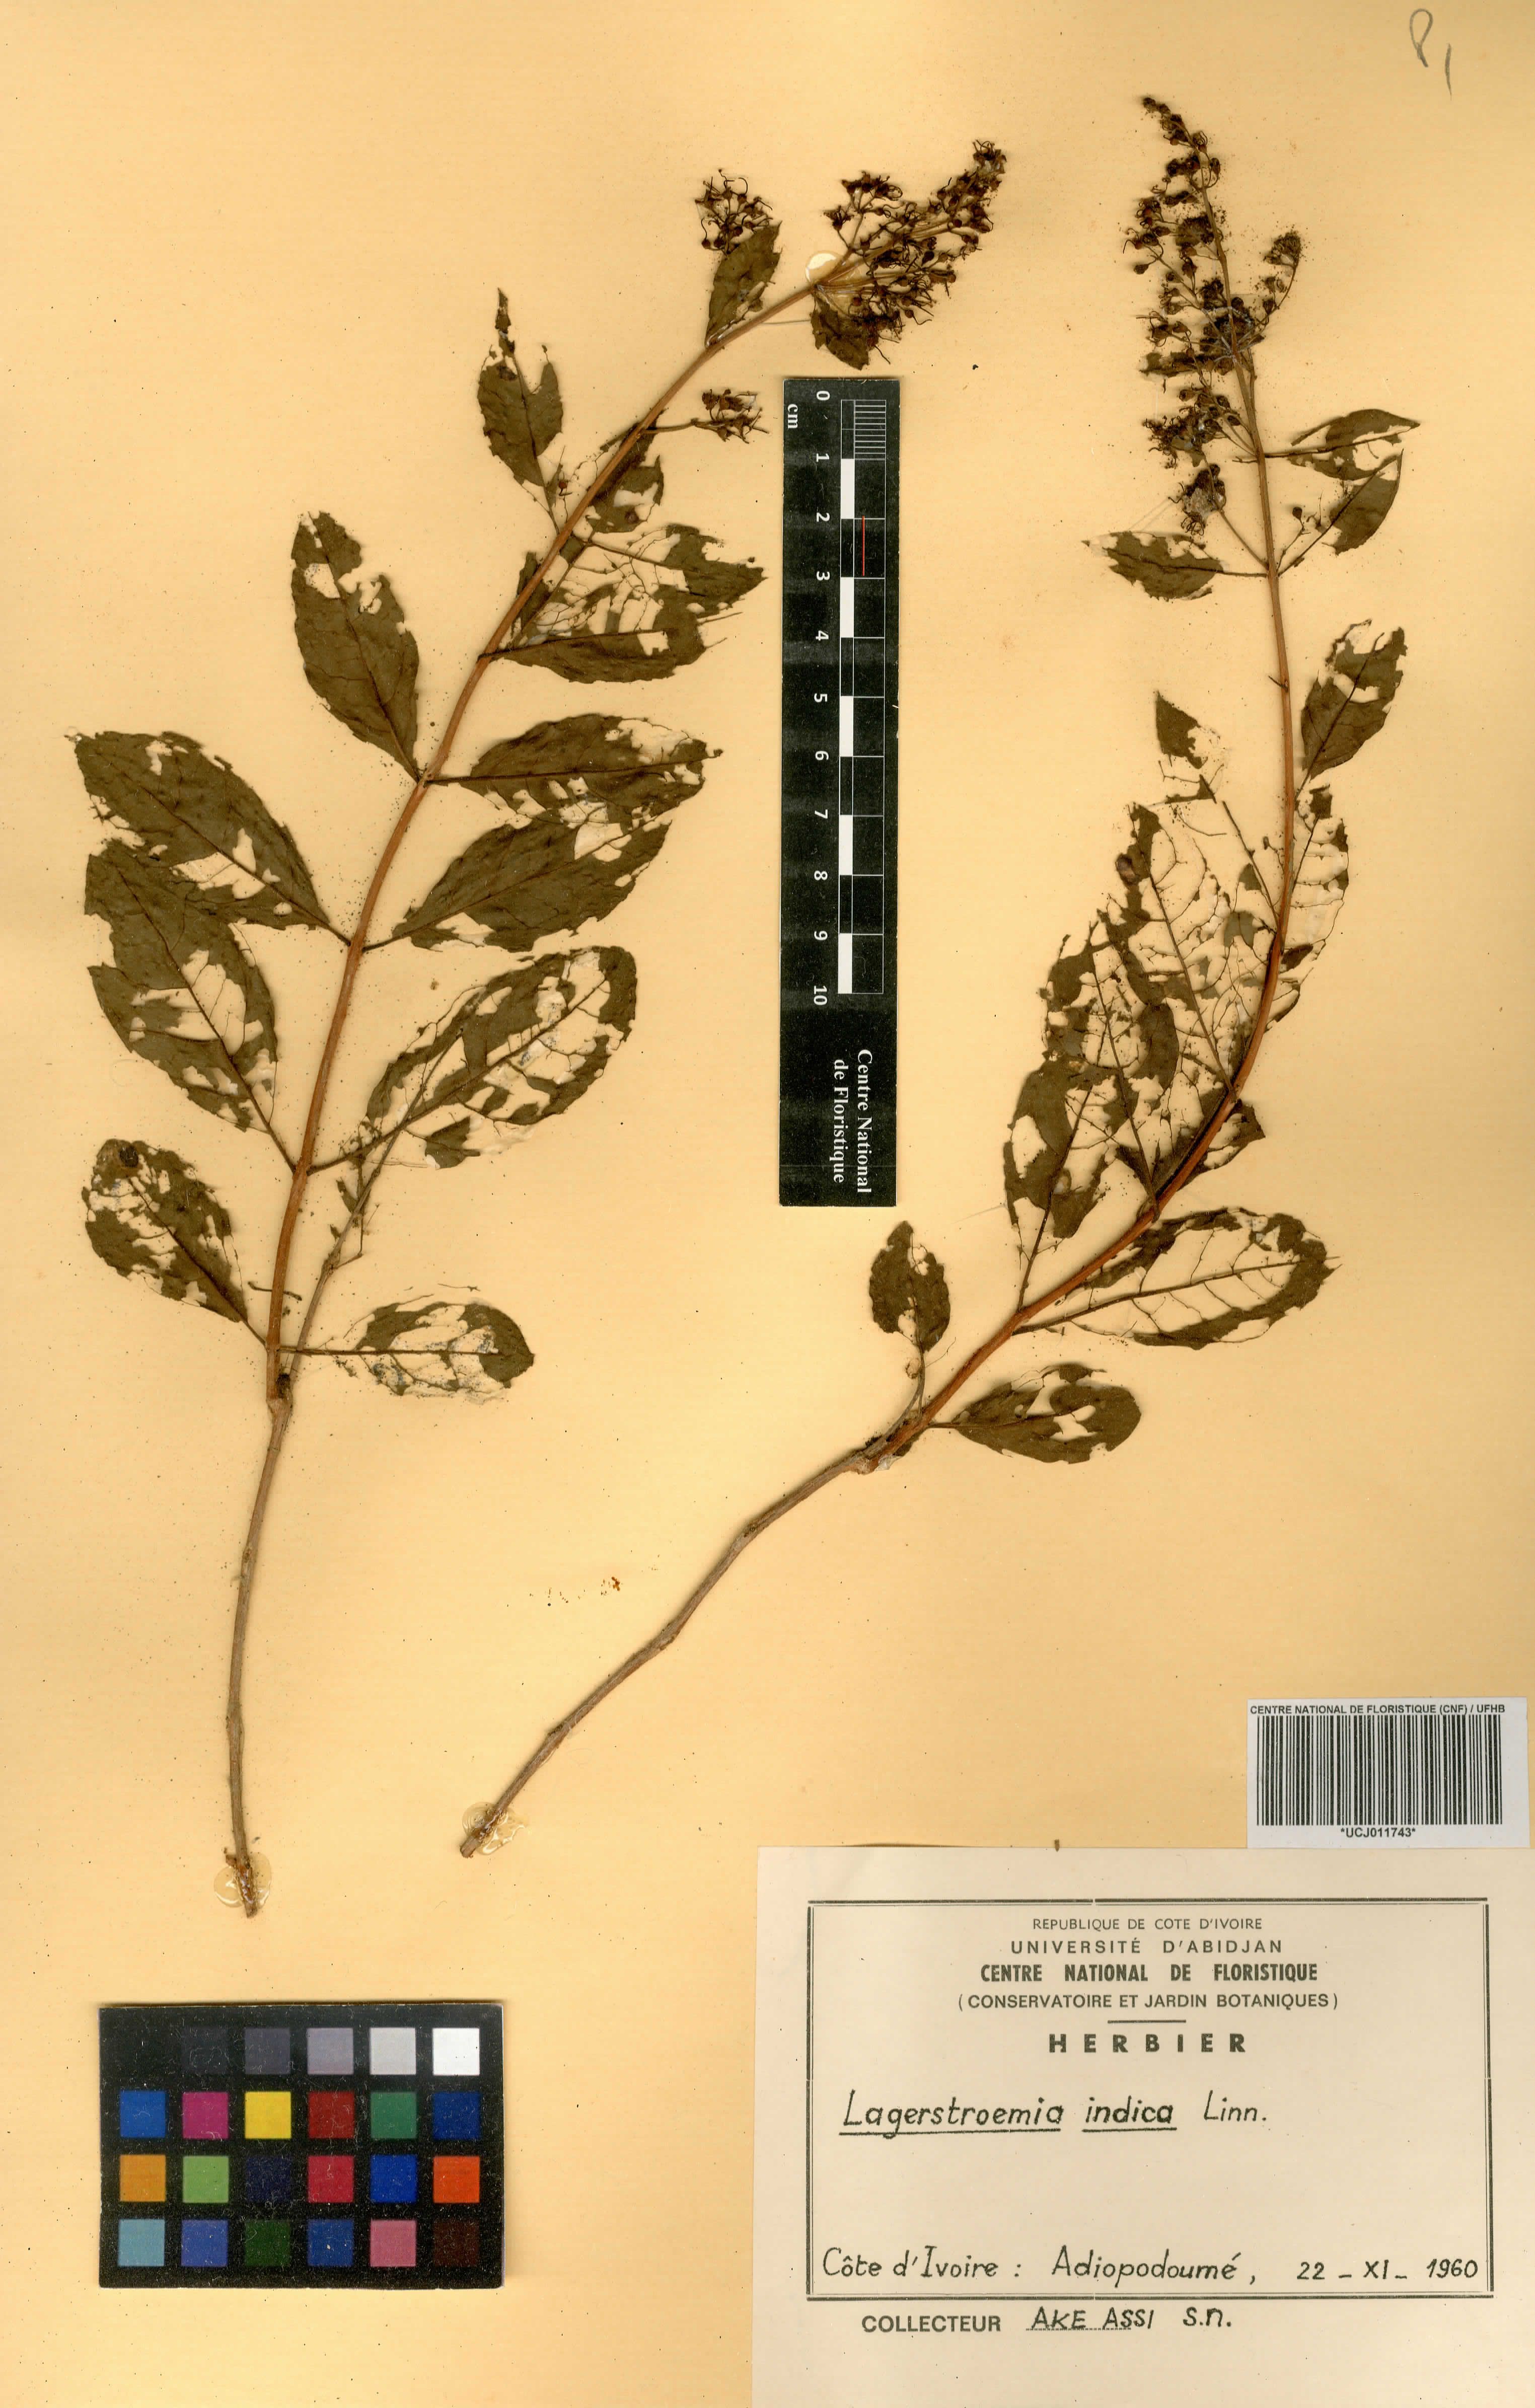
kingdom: Plantae
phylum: Tracheophyta
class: Magnoliopsida
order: Myrtales
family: Lythraceae
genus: Lagerstroemia
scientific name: Lagerstroemia indica
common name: Crape-myrtle
